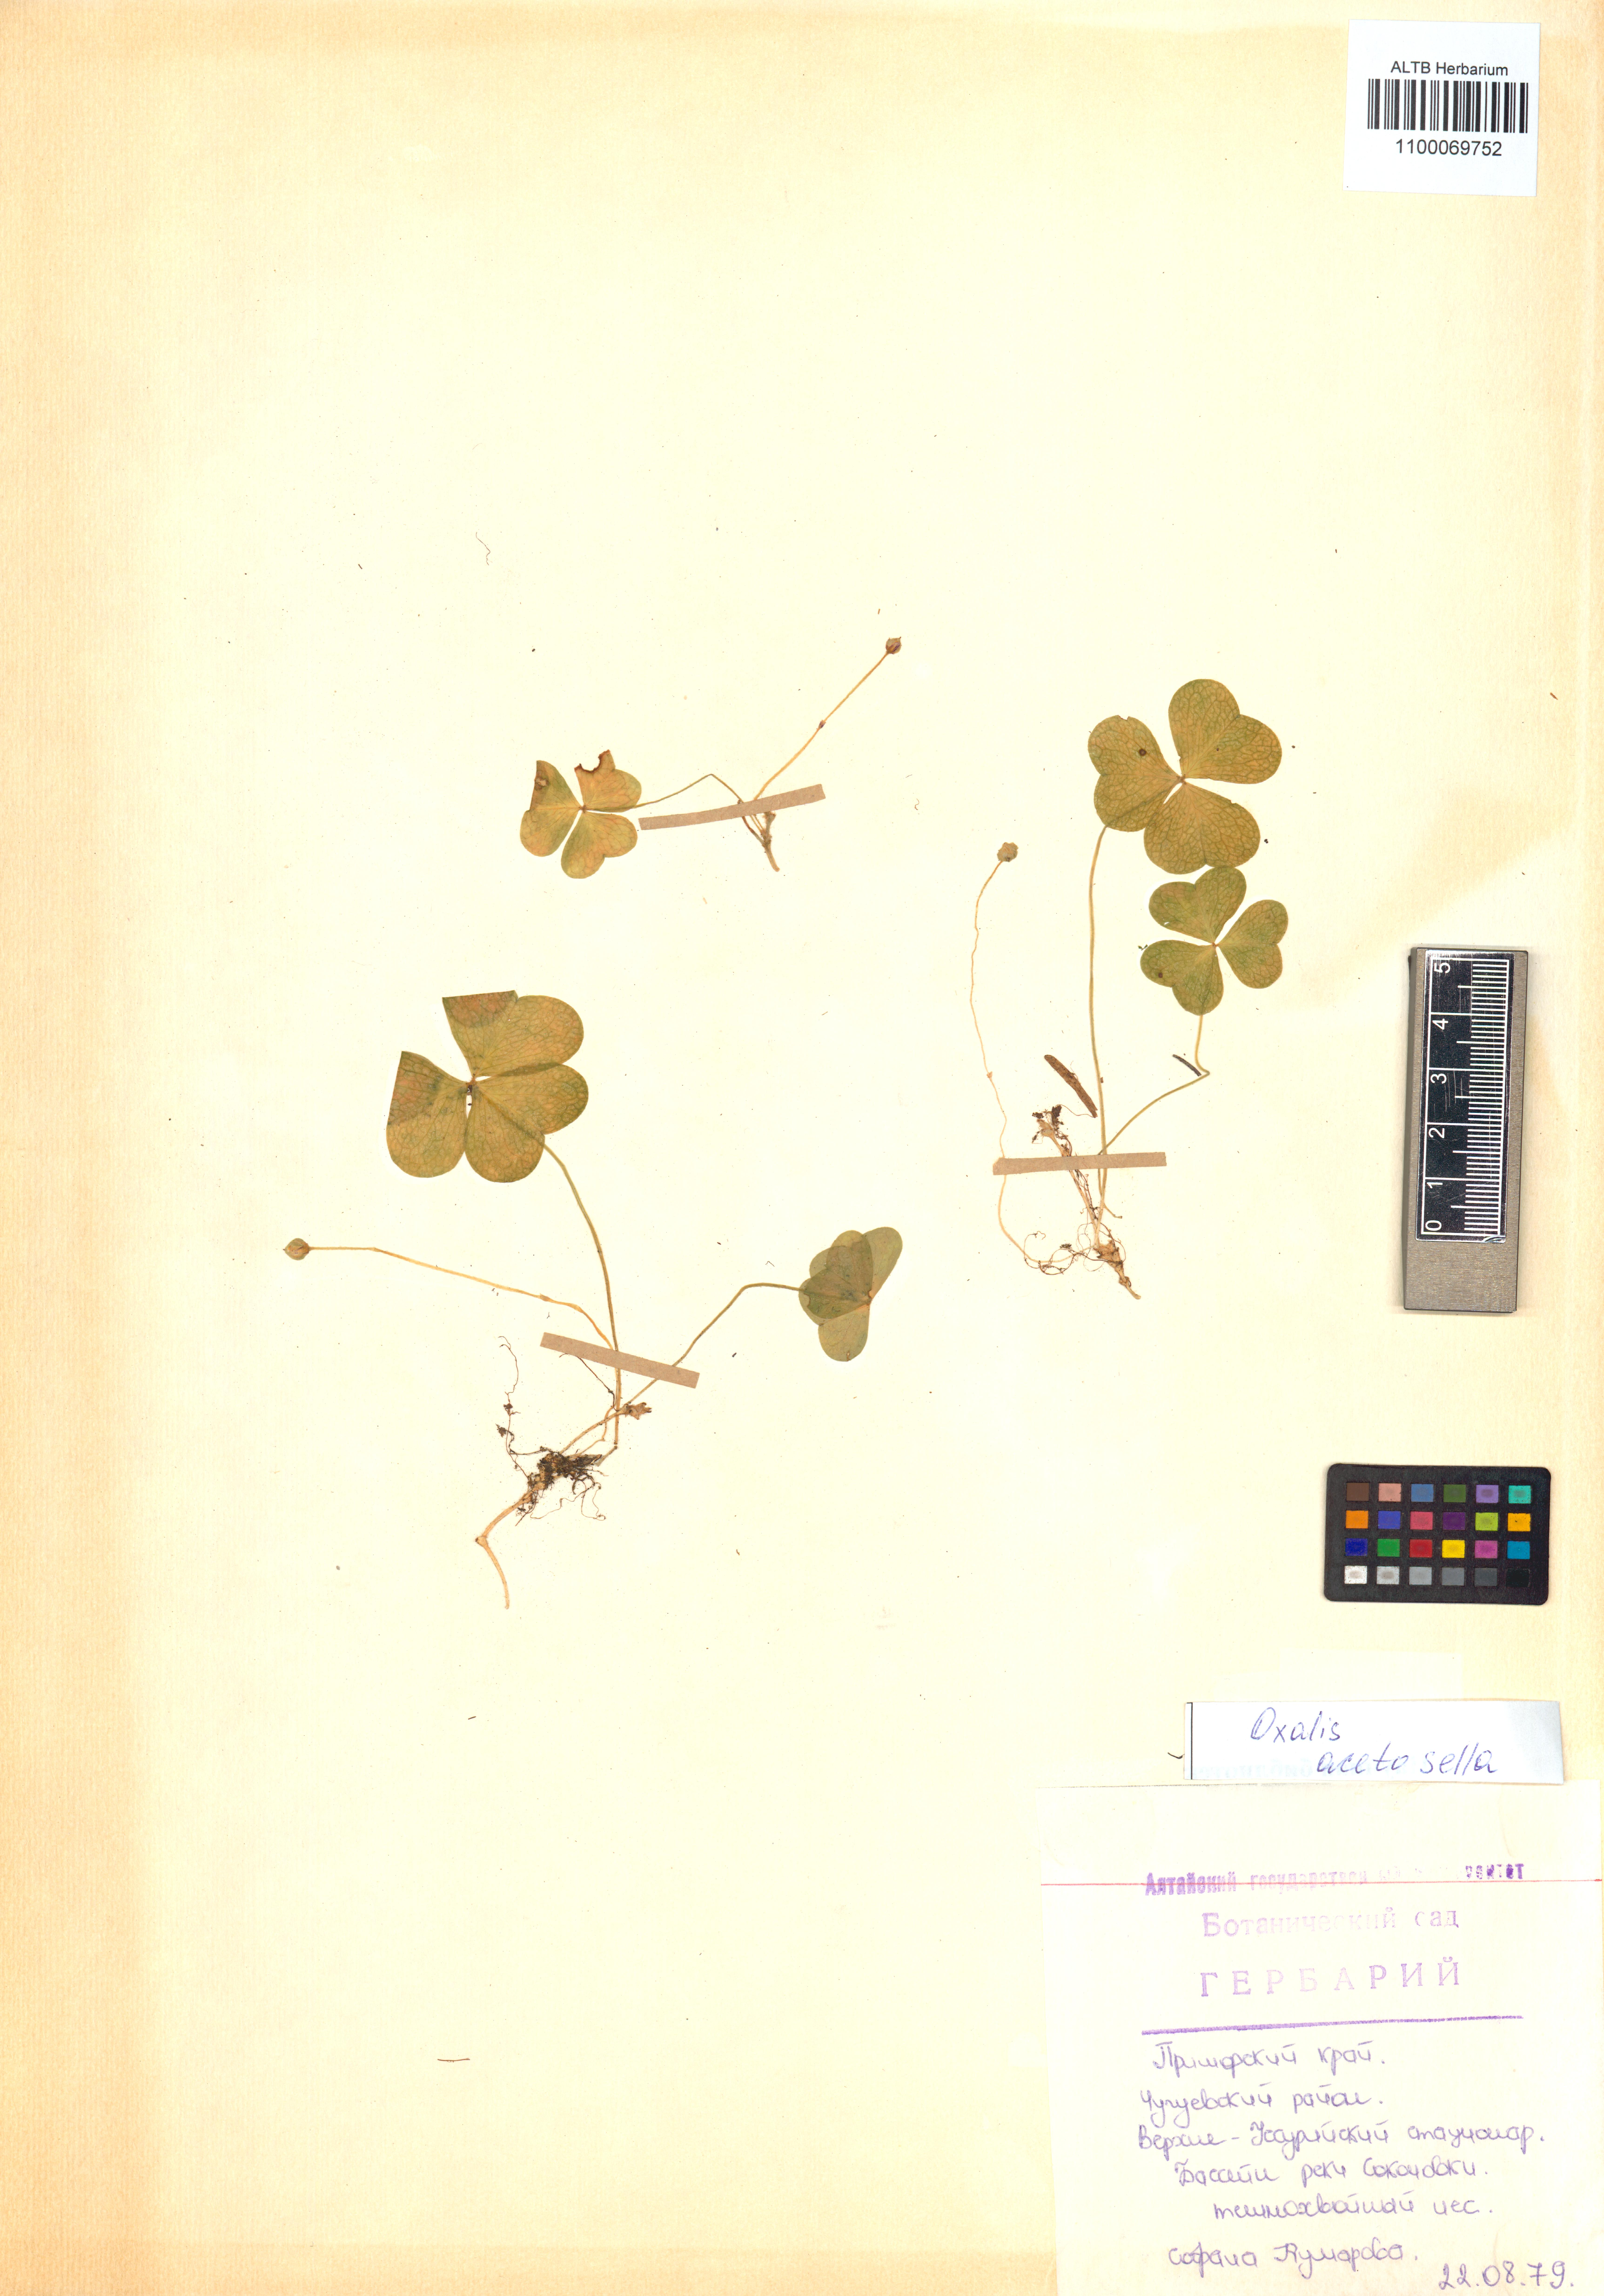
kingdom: Plantae
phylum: Tracheophyta
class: Magnoliopsida
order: Oxalidales
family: Oxalidaceae
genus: Oxalis
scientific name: Oxalis acetosella
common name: Wood-sorrel
